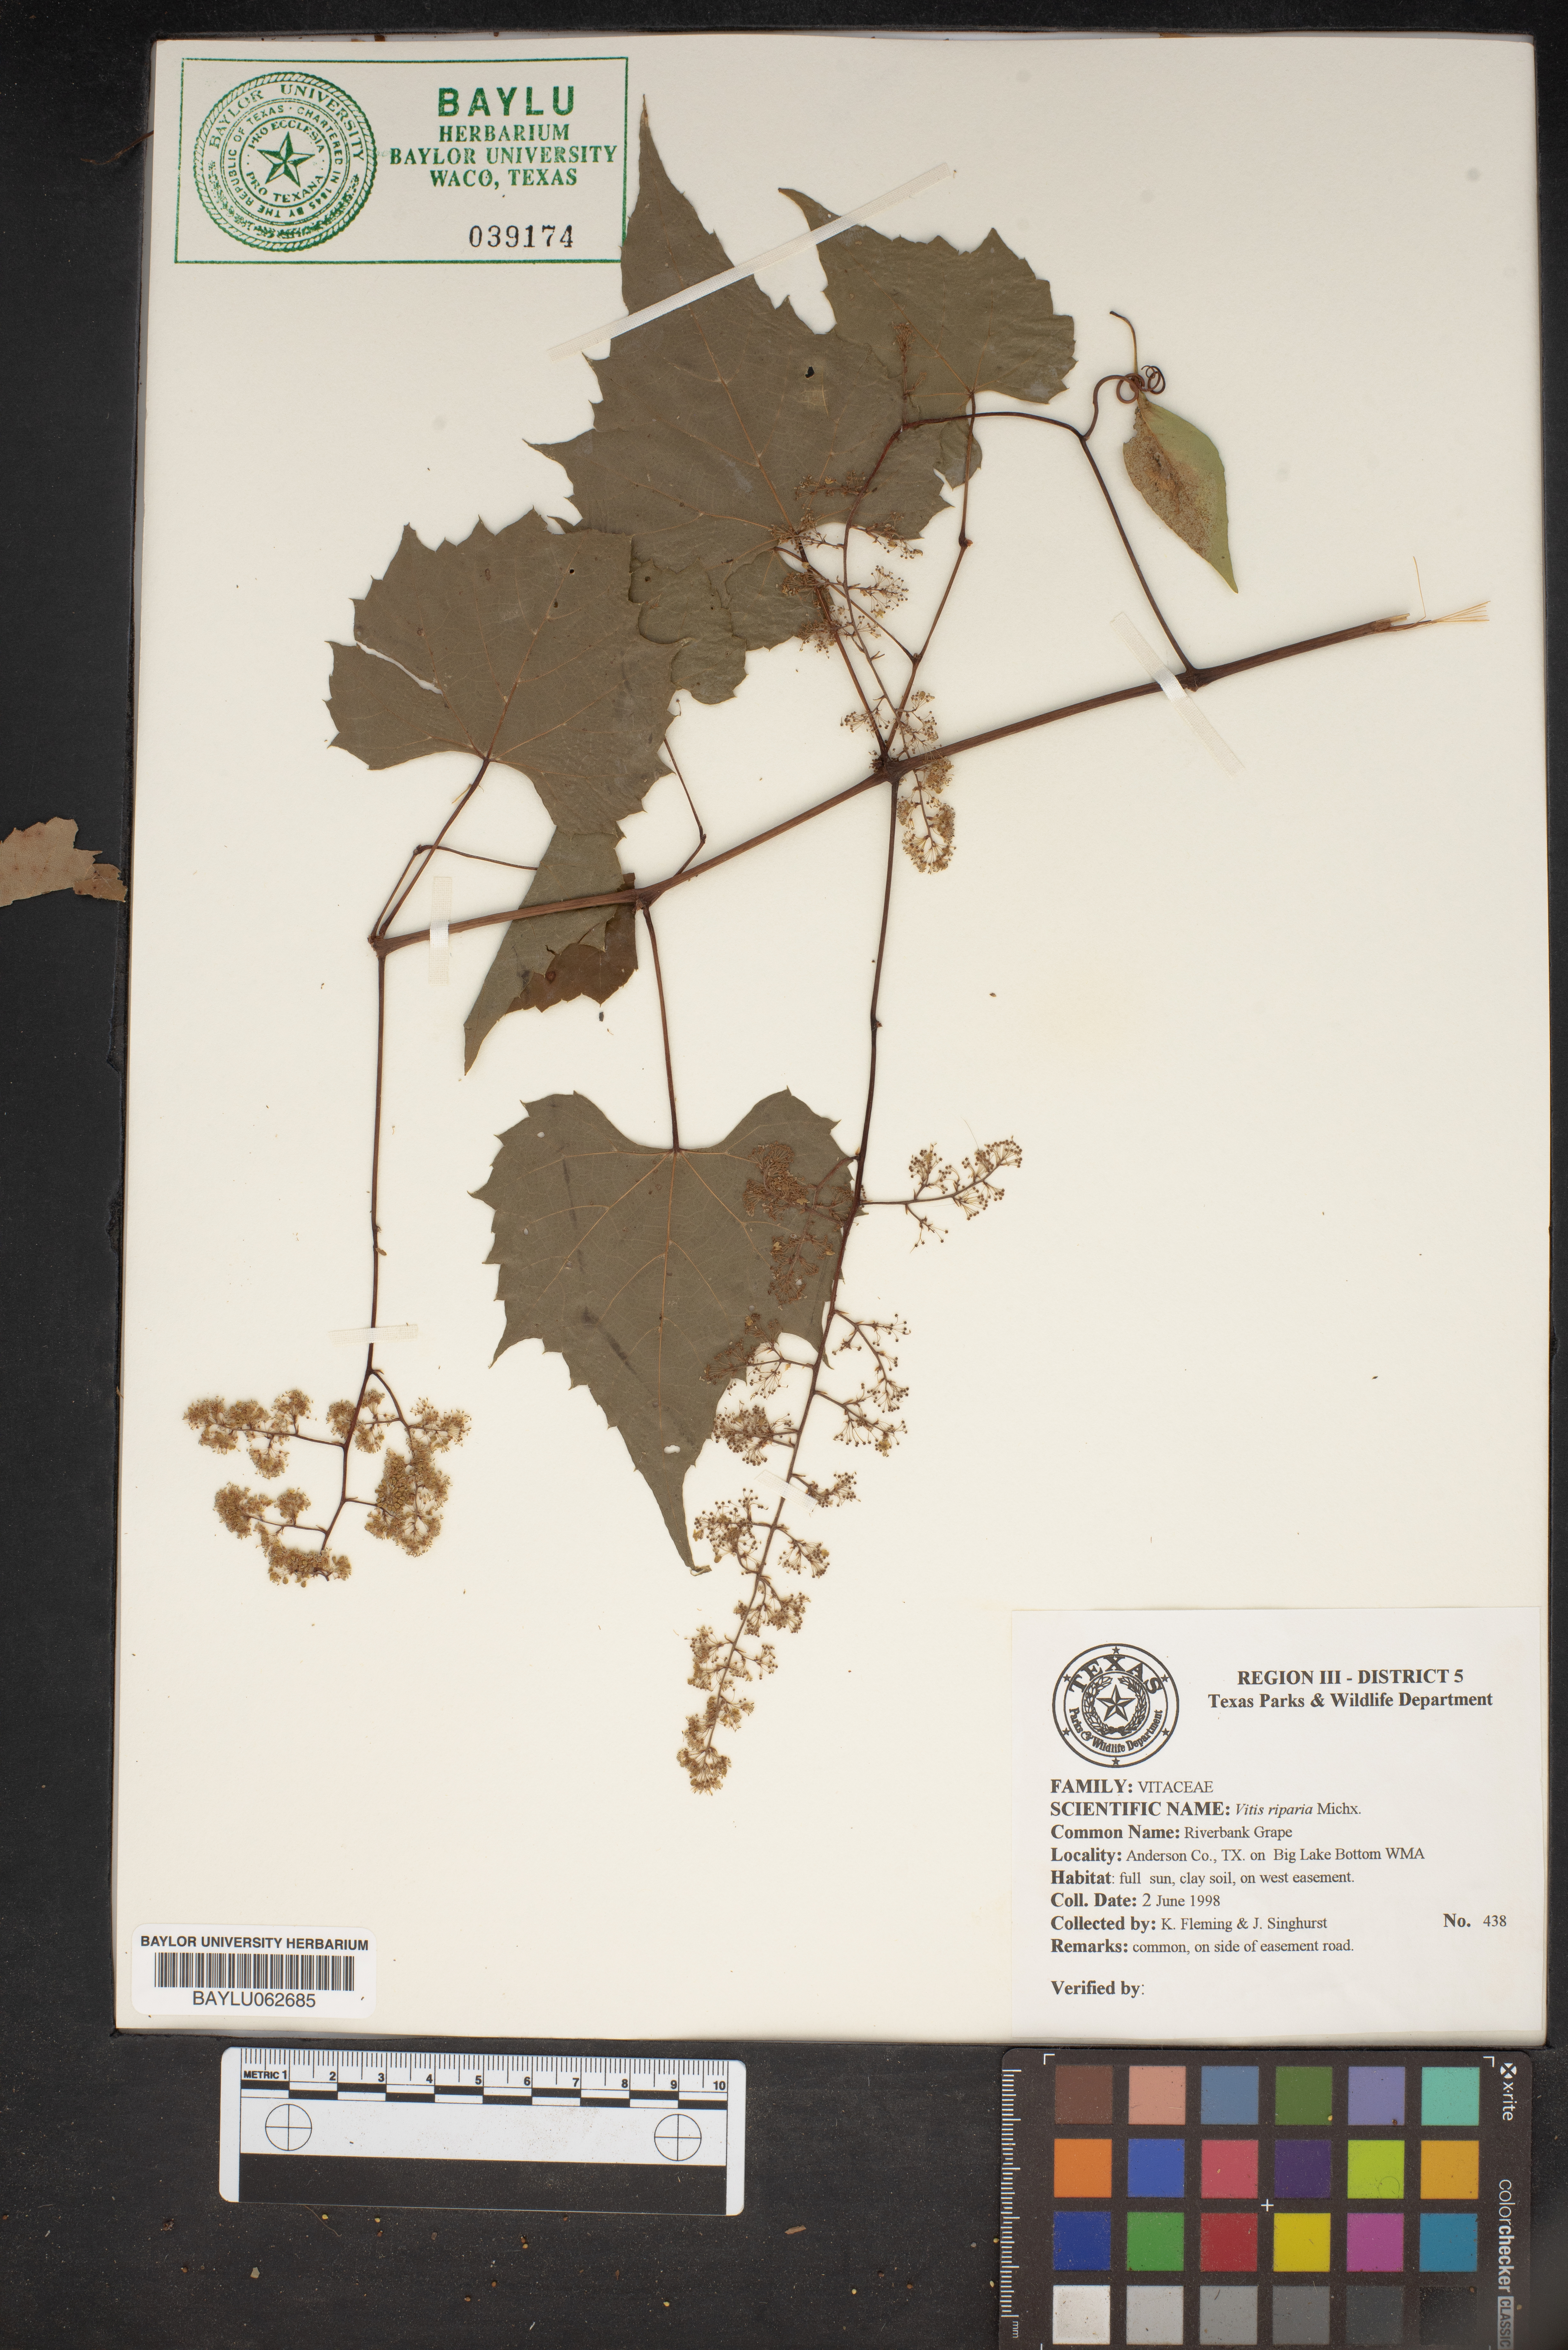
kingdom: Plantae
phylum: Tracheophyta
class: Magnoliopsida
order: Vitales
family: Vitaceae
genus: Vitis
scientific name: Vitis riparia
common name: Frost grape
